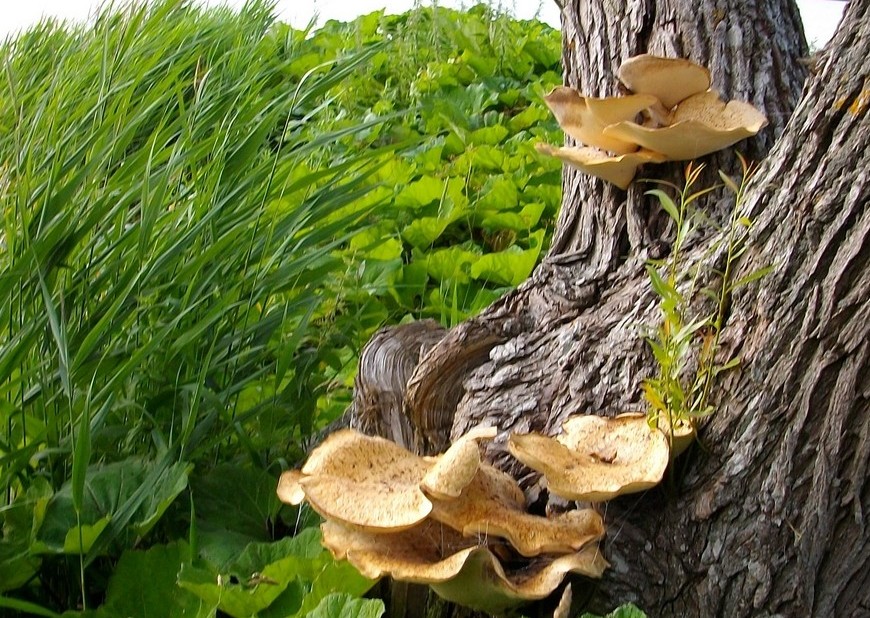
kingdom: Fungi
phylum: Basidiomycota
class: Agaricomycetes
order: Polyporales
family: Polyporaceae
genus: Cerioporus
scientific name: Cerioporus squamosus
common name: skællet stilkporesvamp
